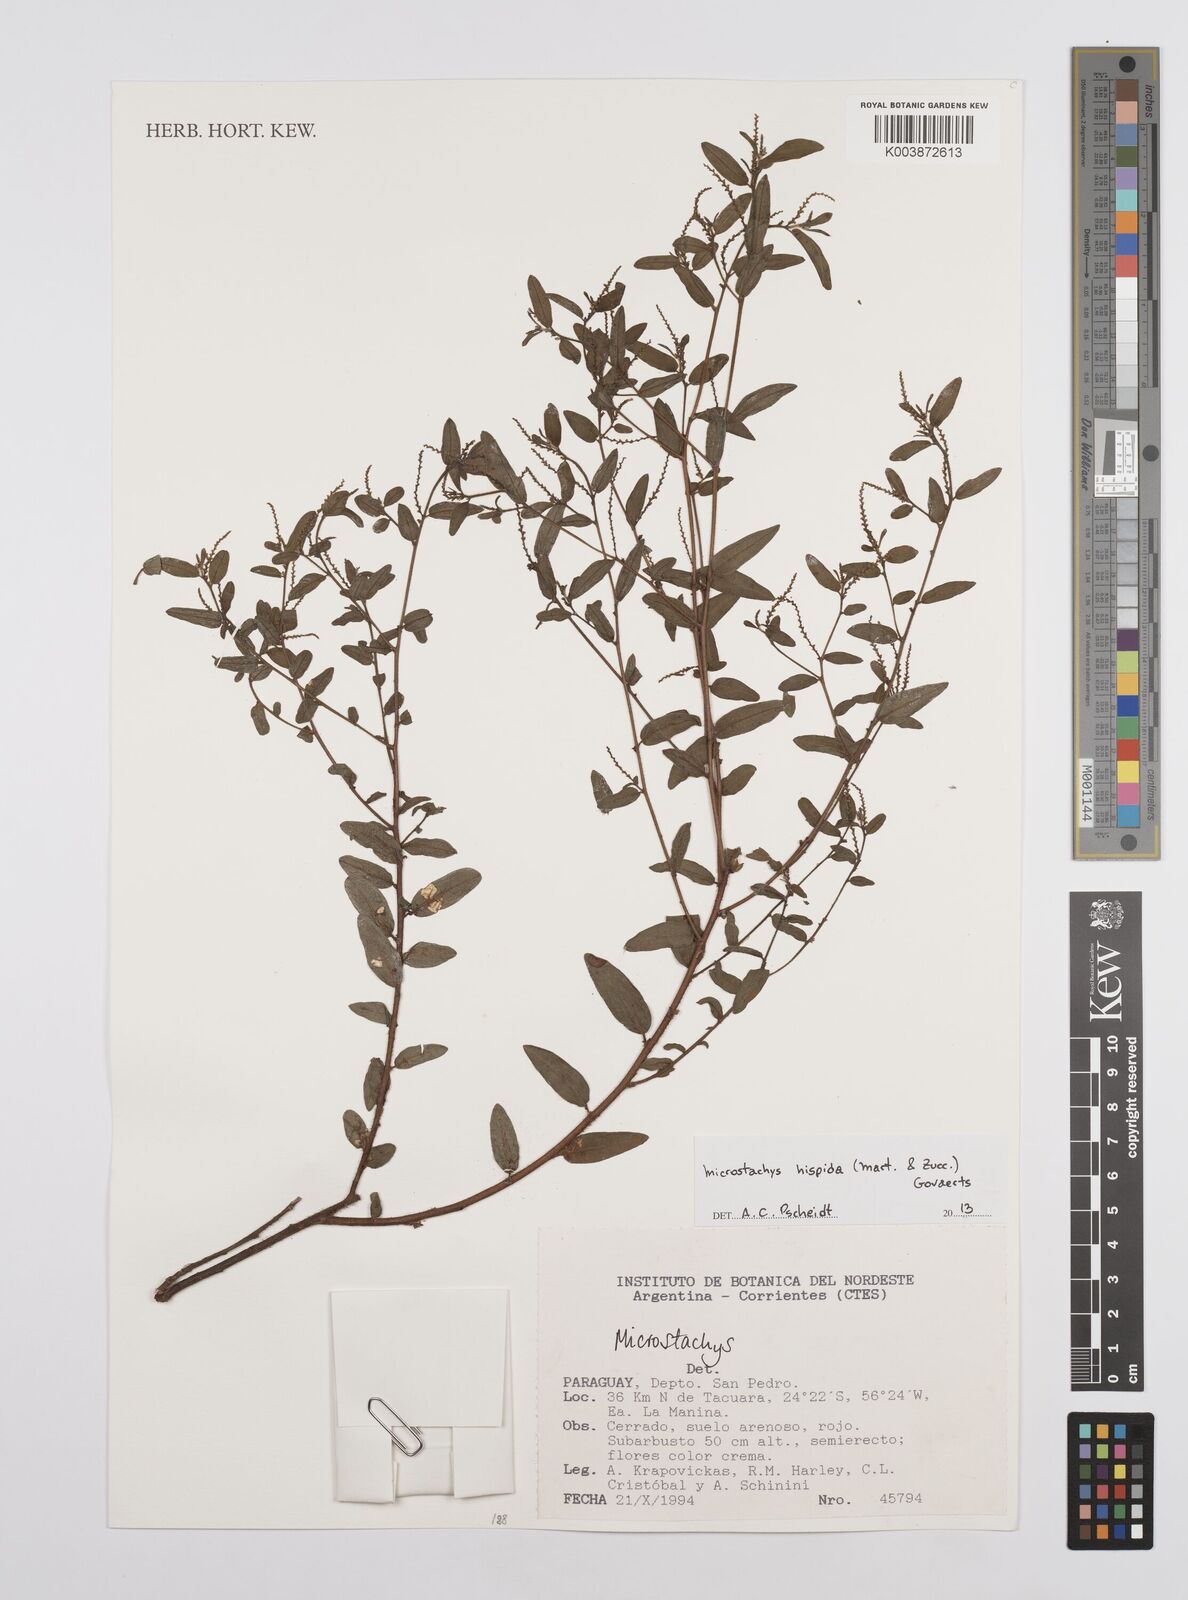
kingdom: Plantae
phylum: Tracheophyta
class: Magnoliopsida
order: Malpighiales
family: Euphorbiaceae
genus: Microstachys
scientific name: Microstachys hispida
